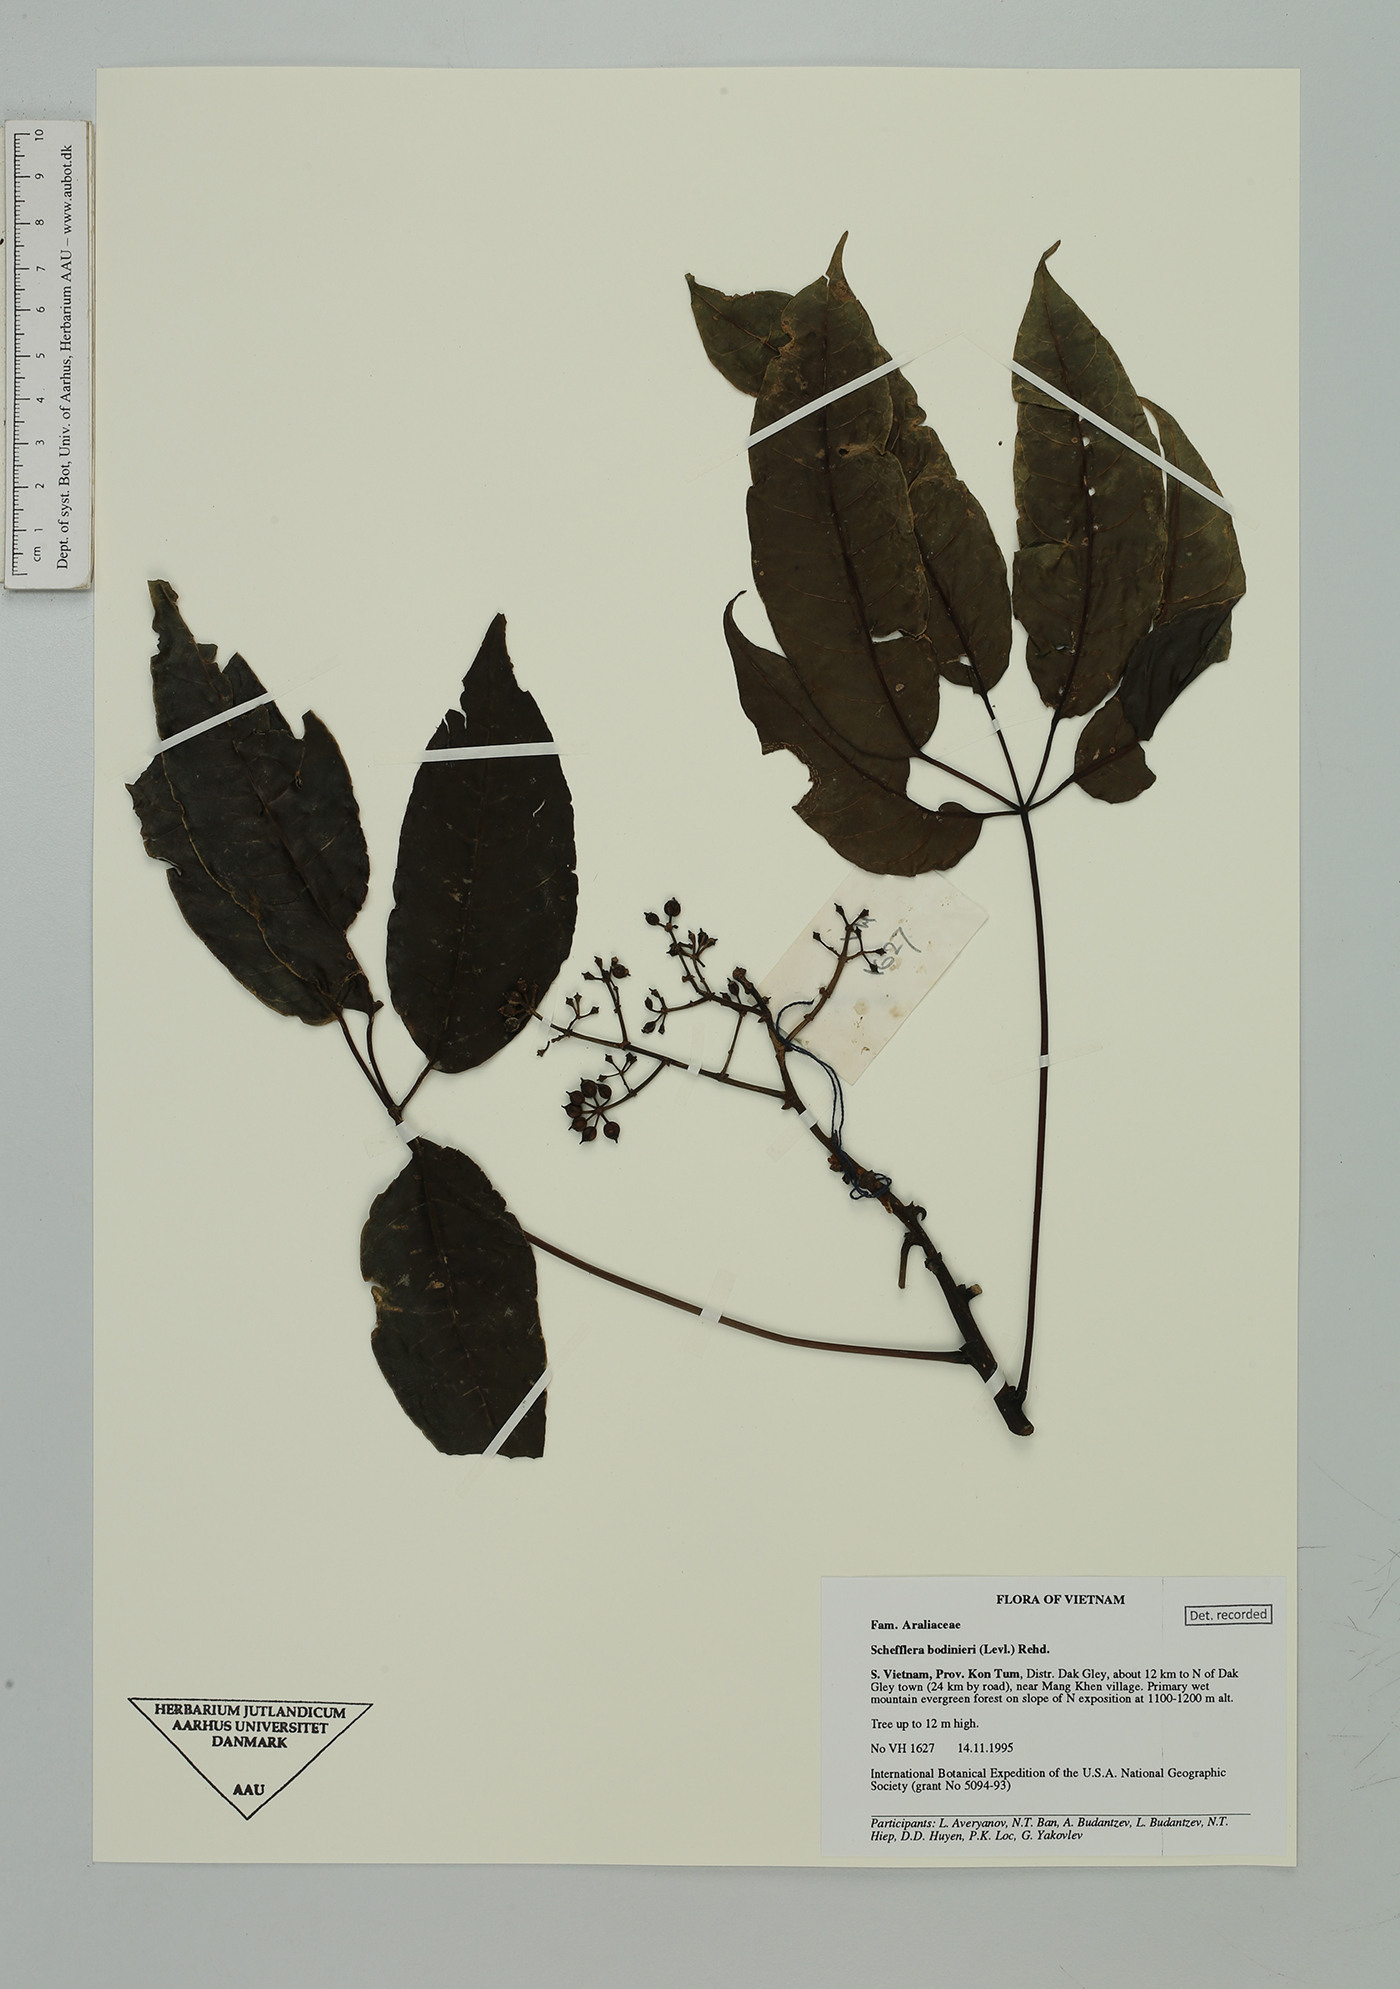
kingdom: Plantae
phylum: Tracheophyta
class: Magnoliopsida
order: Apiales
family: Araliaceae
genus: Heptapleurum
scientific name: Heptapleurum bodinieri
